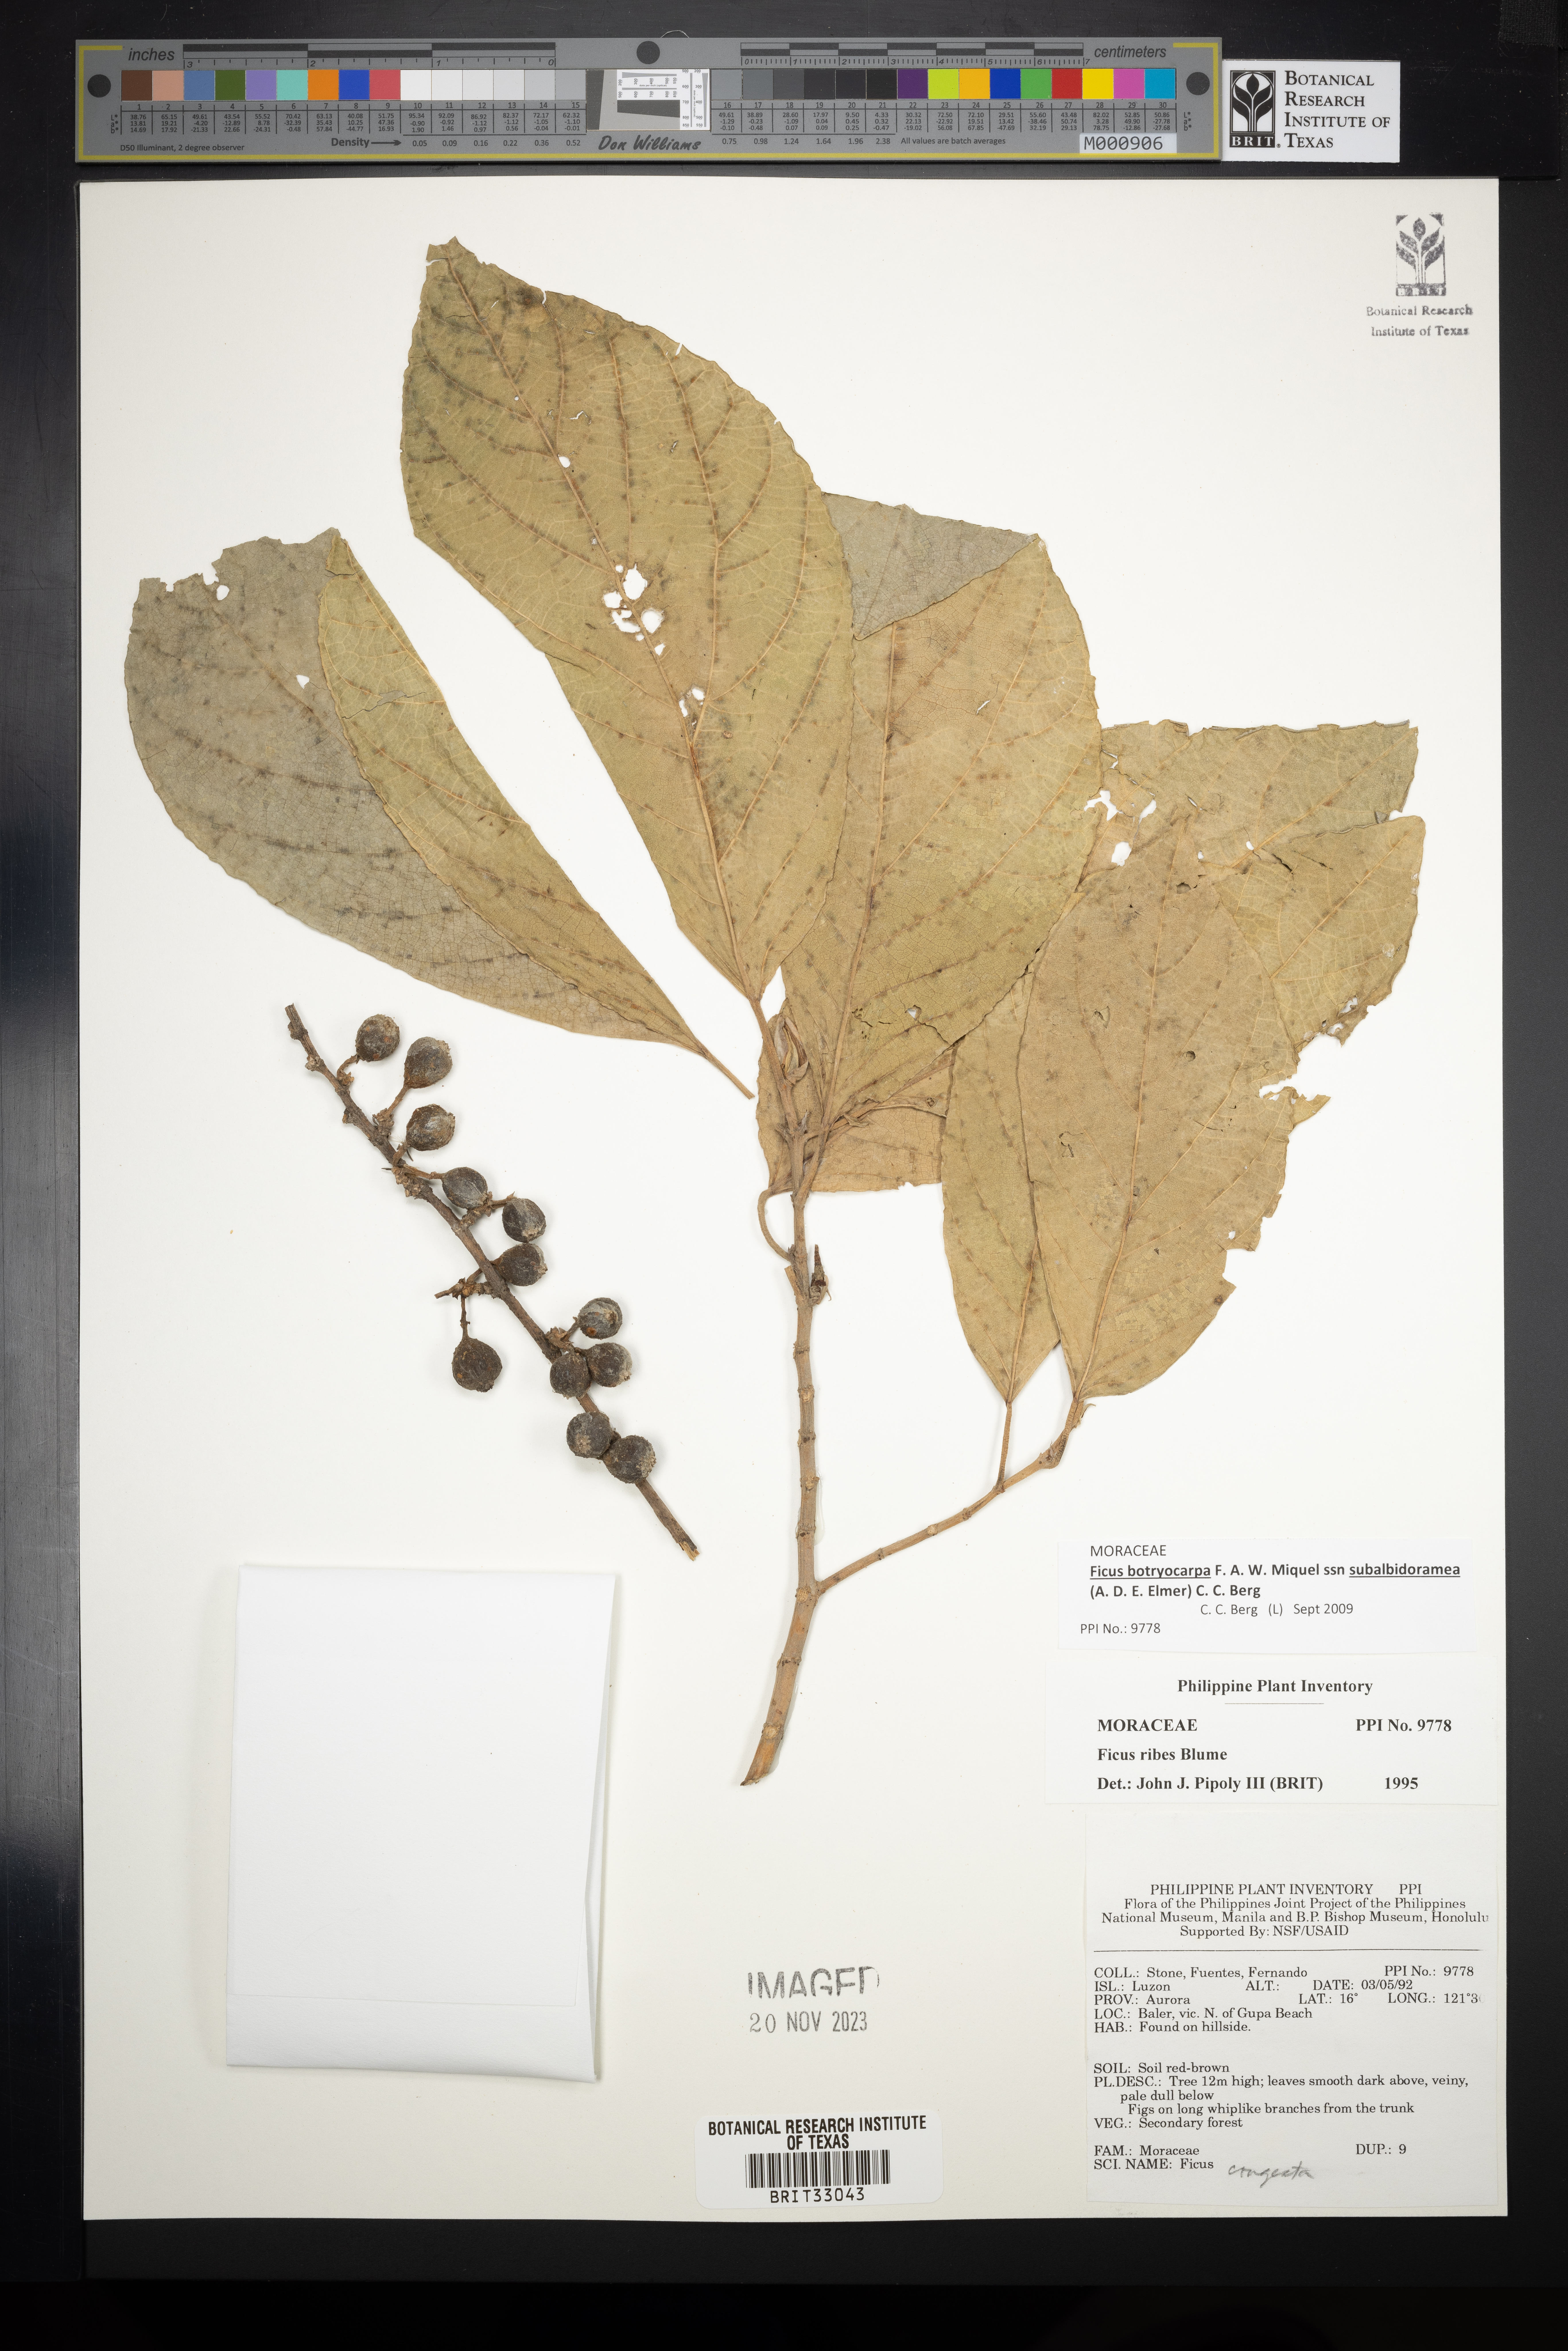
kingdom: Plantae
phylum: Tracheophyta
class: Magnoliopsida
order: Rosales
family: Moraceae
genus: Ficus
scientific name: Ficus ribes
